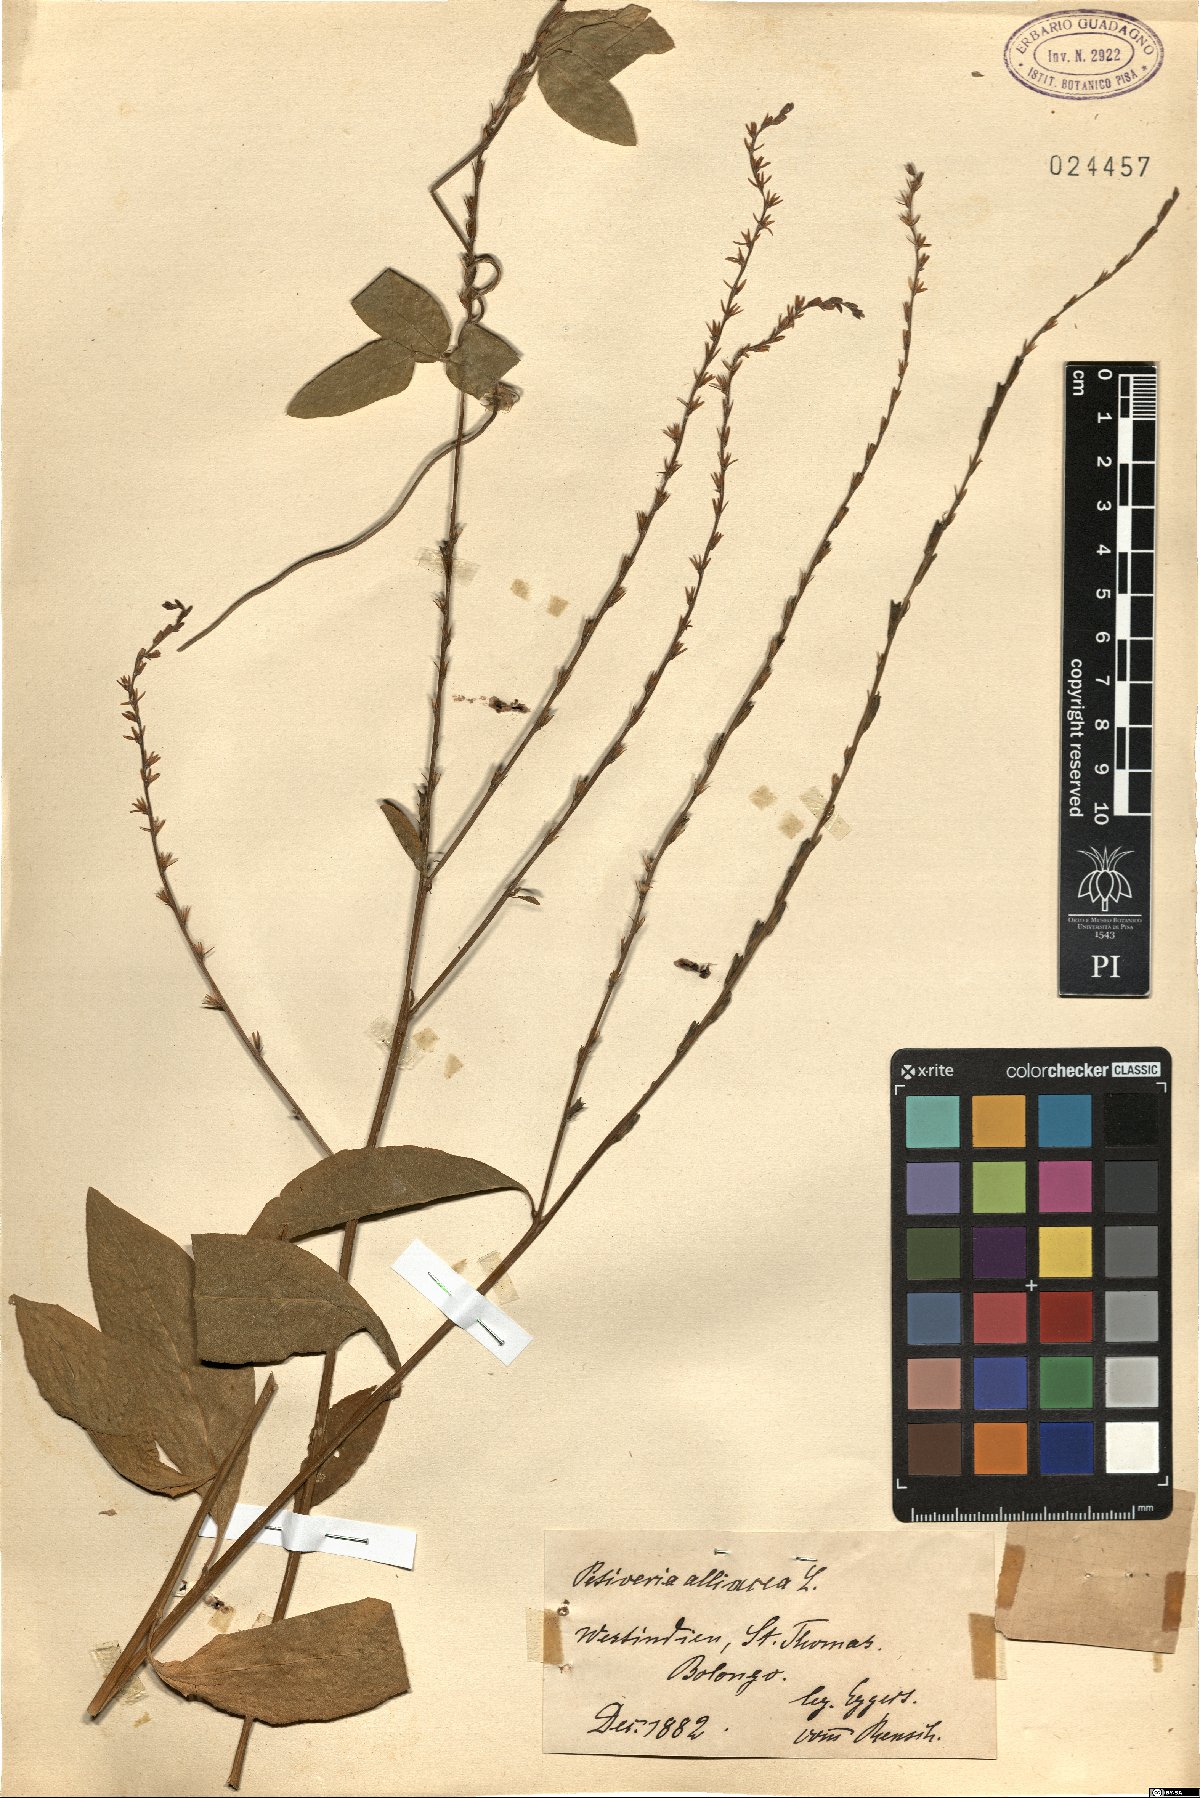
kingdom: Plantae
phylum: Tracheophyta
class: Magnoliopsida
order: Caryophyllales
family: Phytolaccaceae
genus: Petiveria
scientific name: Petiveria alliacea
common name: Garlicweed
